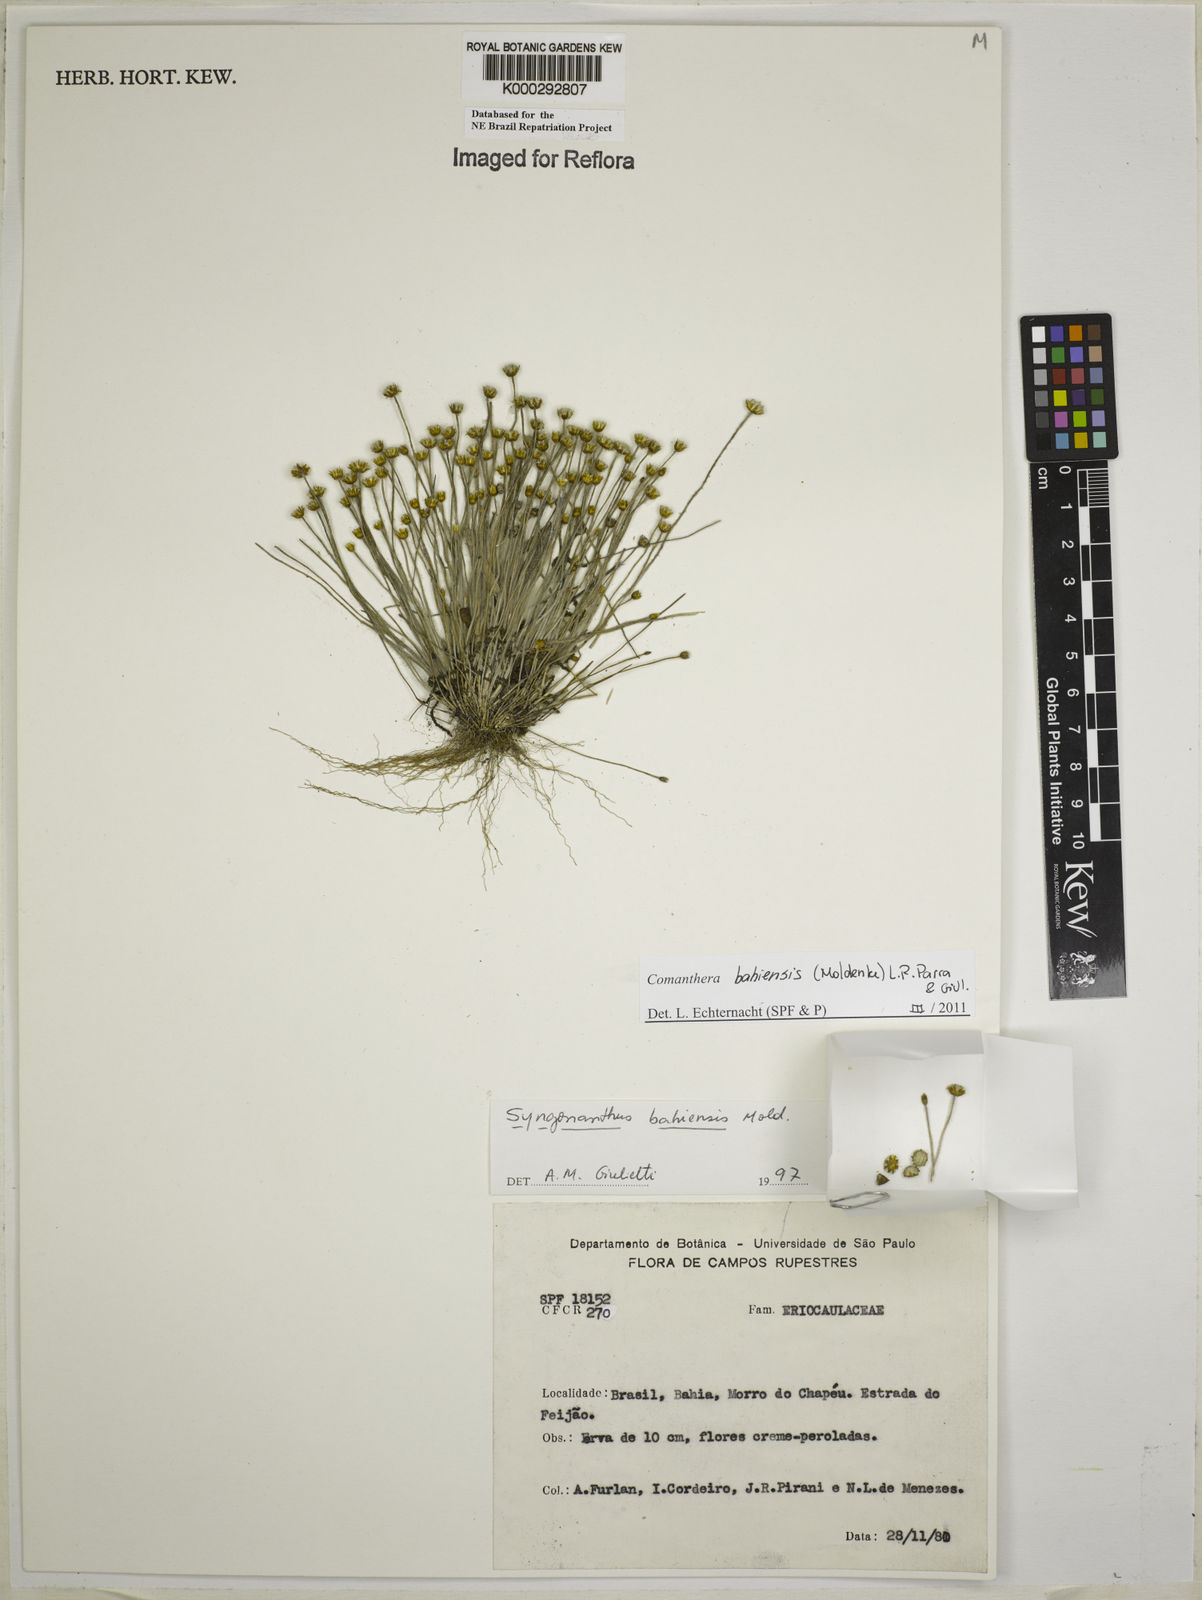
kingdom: Plantae
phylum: Tracheophyta
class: Liliopsida
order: Poales
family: Eriocaulaceae
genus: Comanthera
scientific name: Comanthera bahiensis
